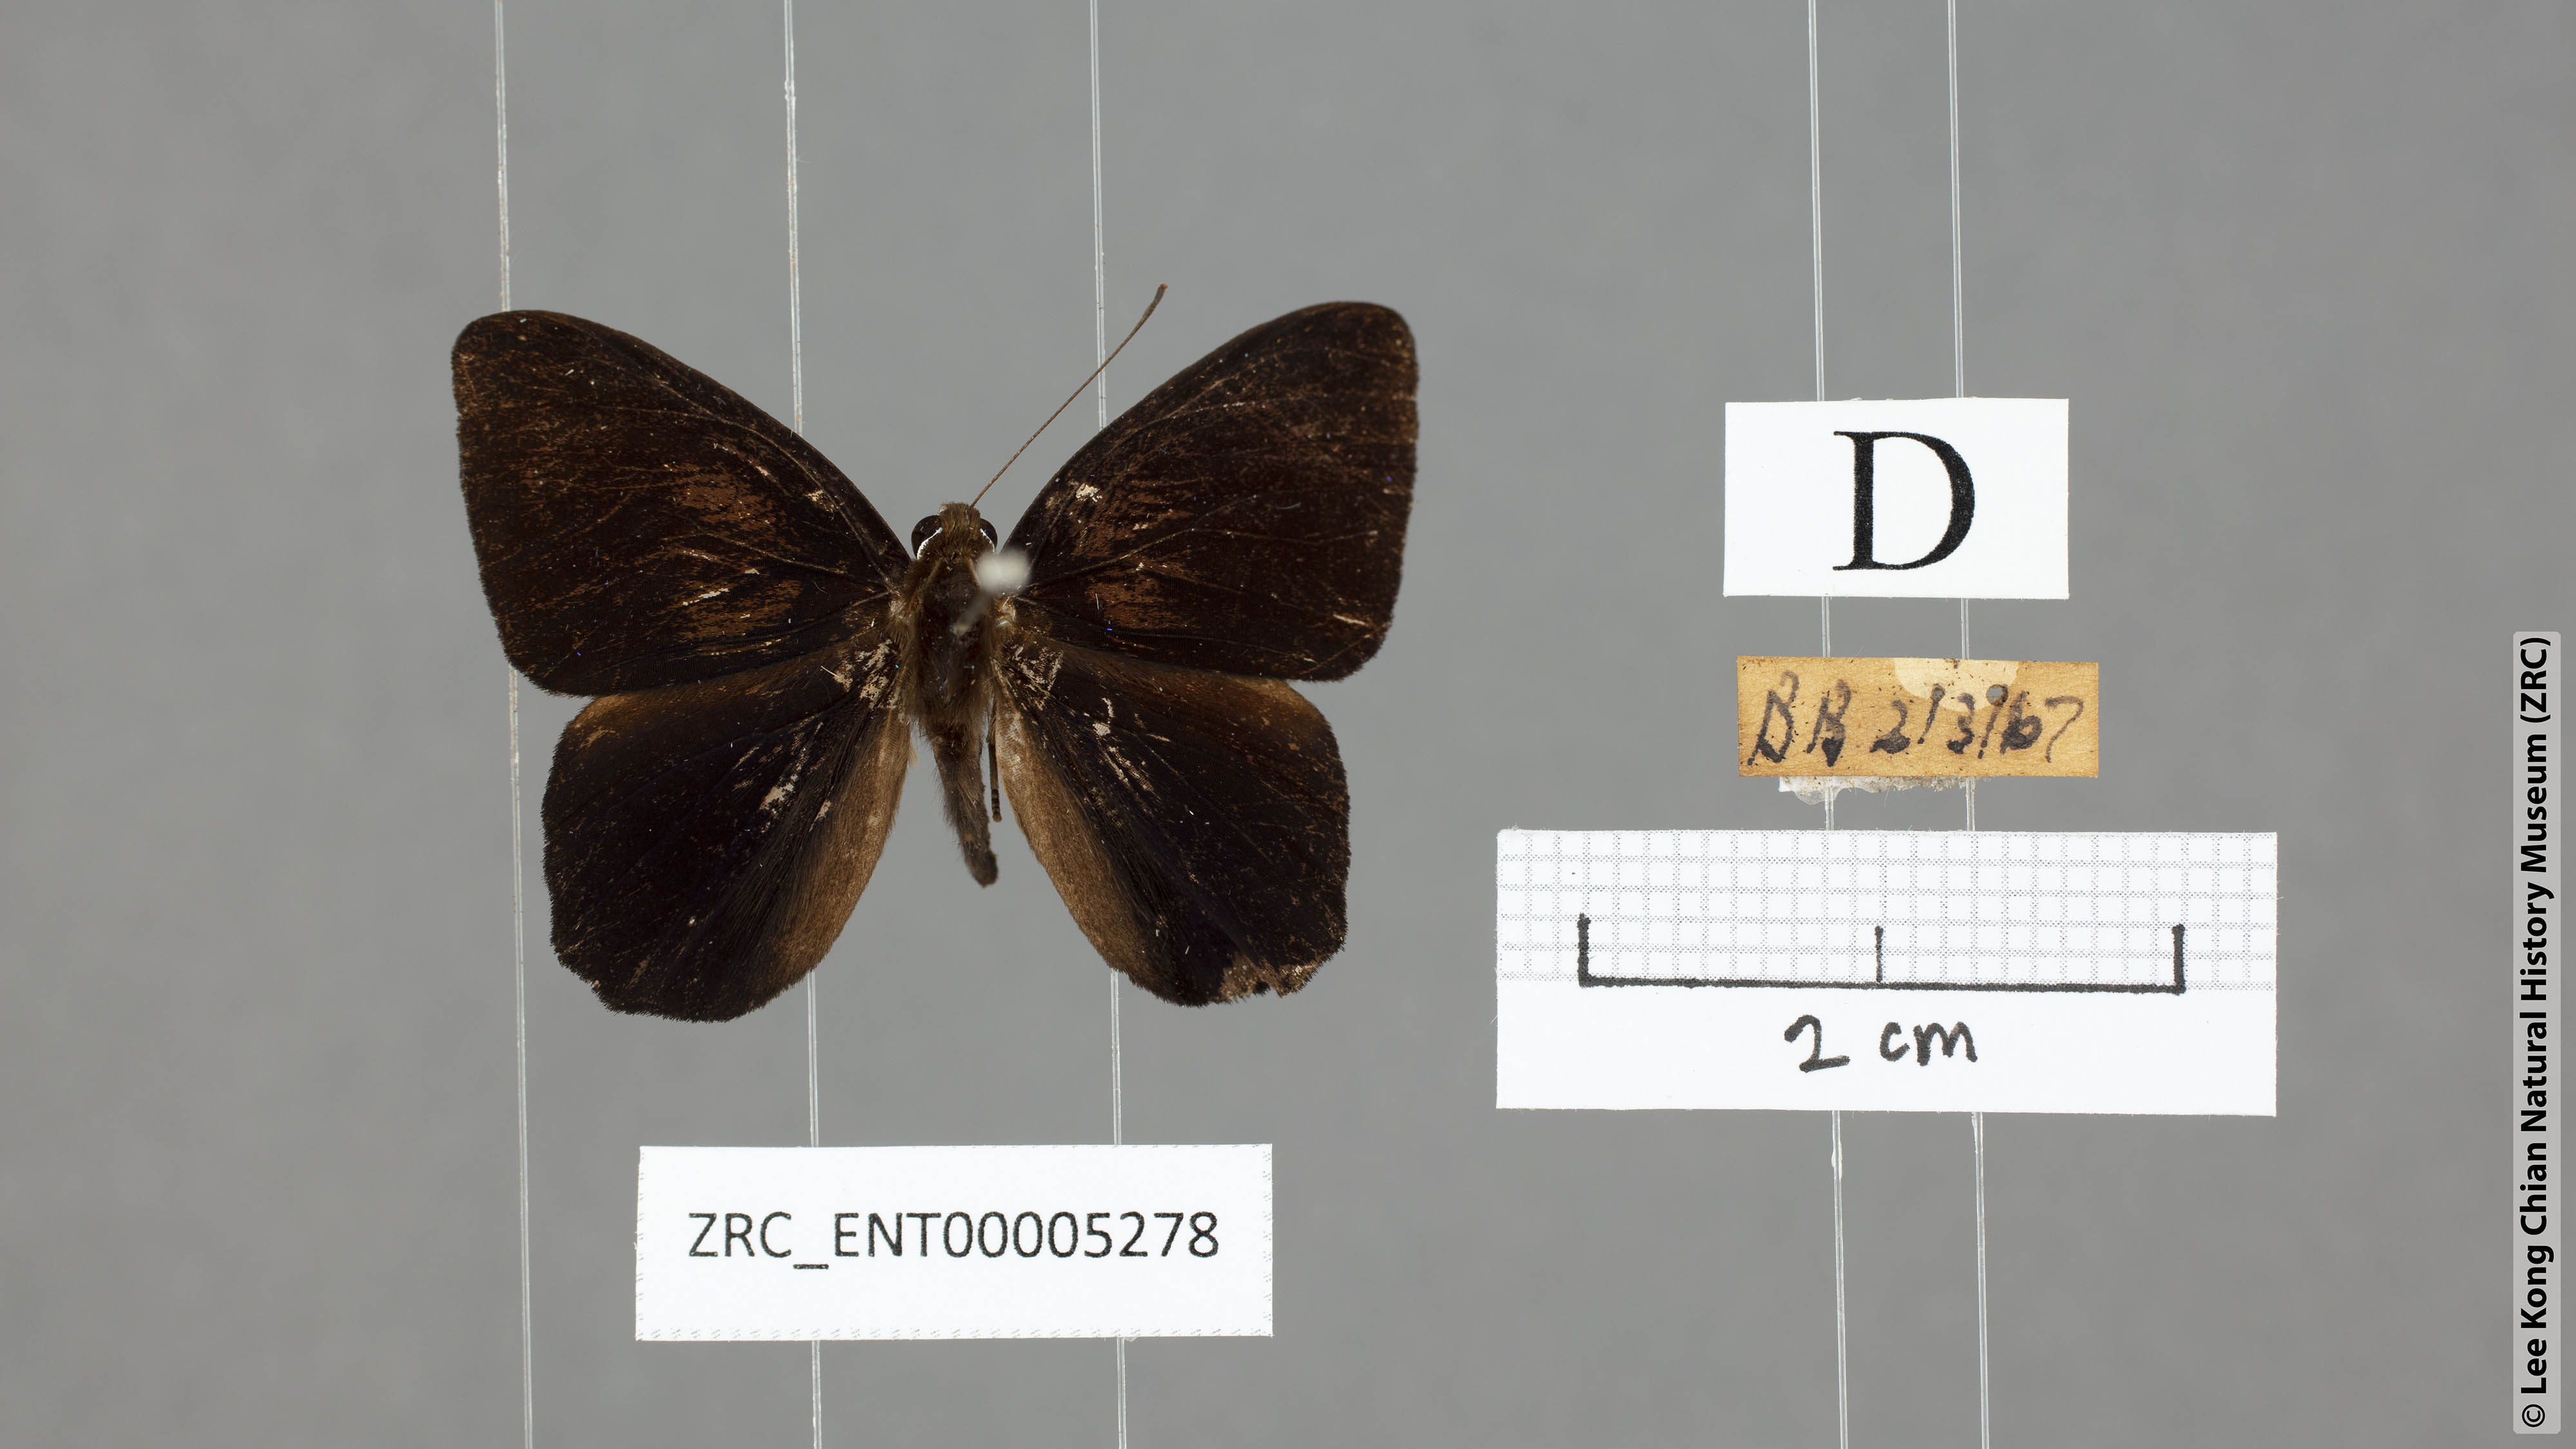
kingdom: Animalia
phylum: Arthropoda
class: Insecta
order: Lepidoptera
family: Erebidae
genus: Dysschema
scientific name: Dysschema
